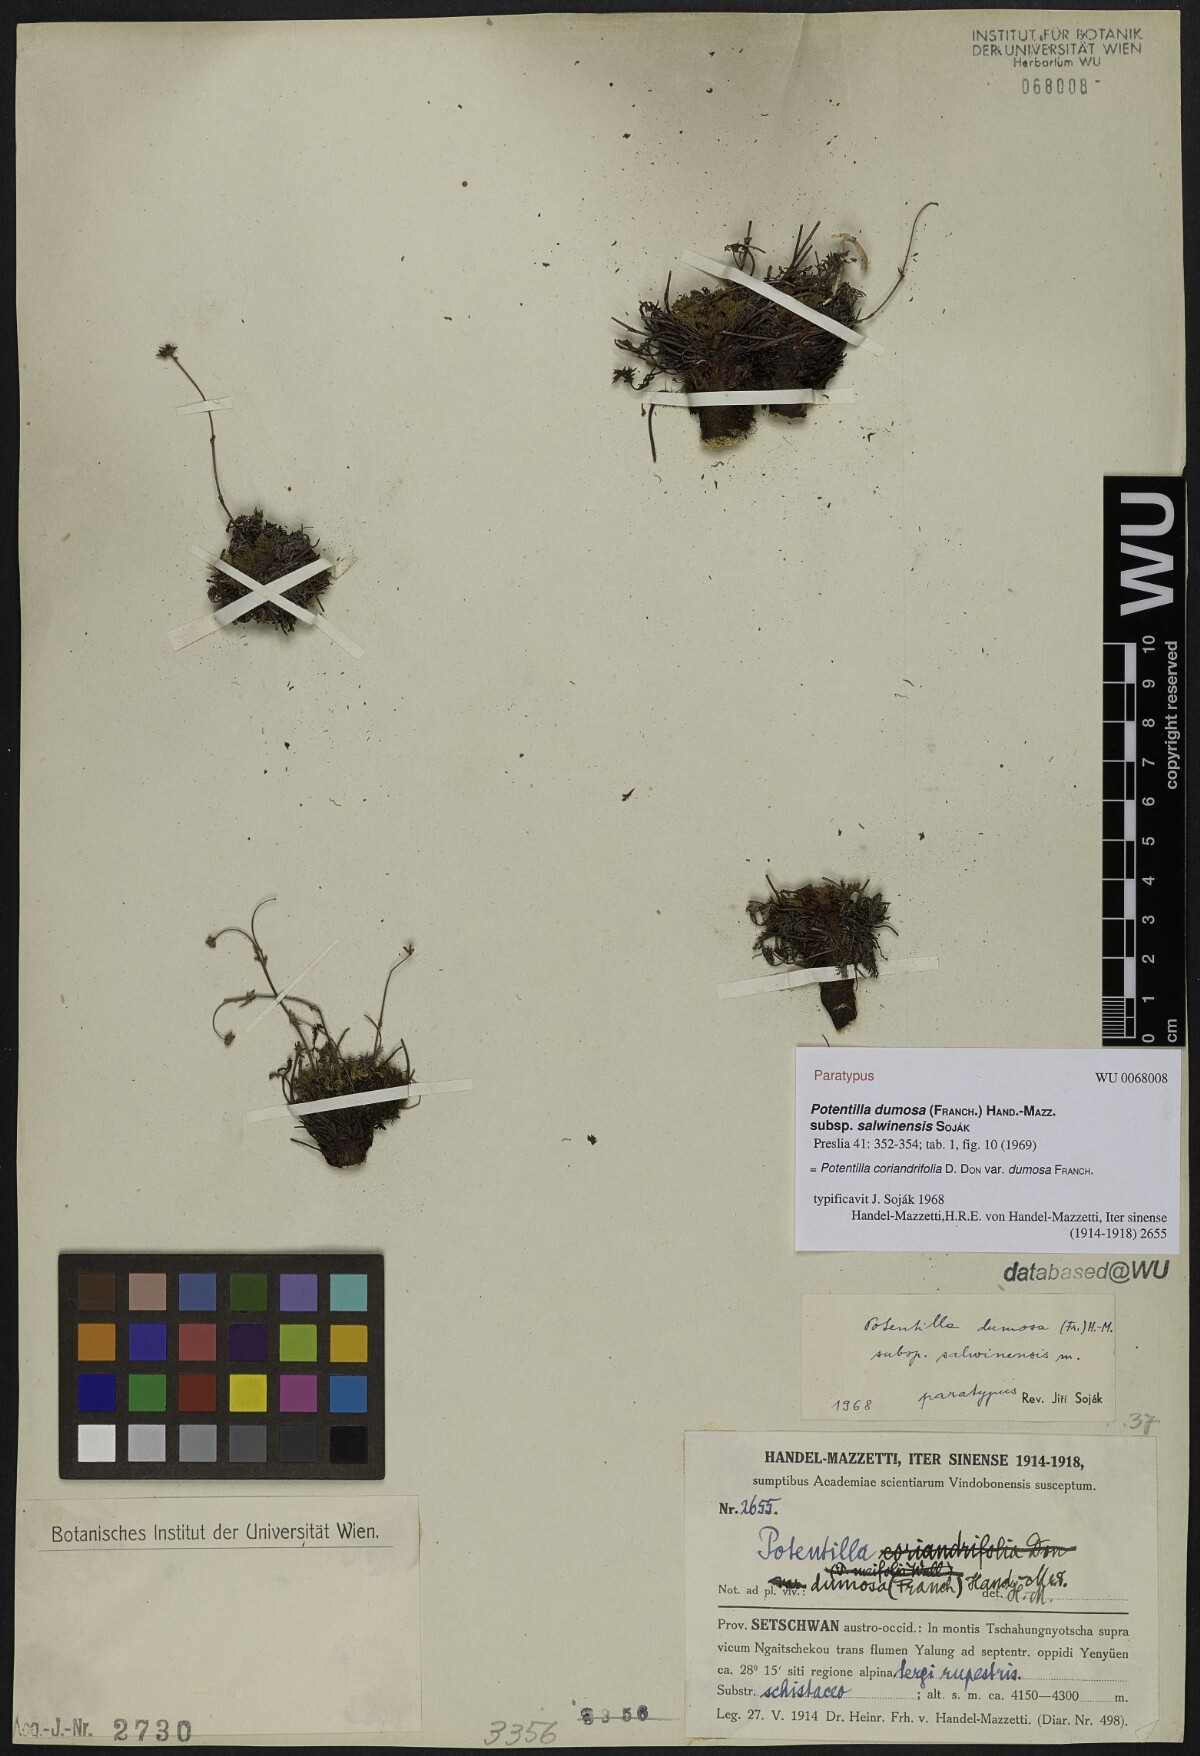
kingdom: Plantae
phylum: Tracheophyta
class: Magnoliopsida
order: Rosales
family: Rosaceae
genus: Potentilla
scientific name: Potentilla coriandrifolia
